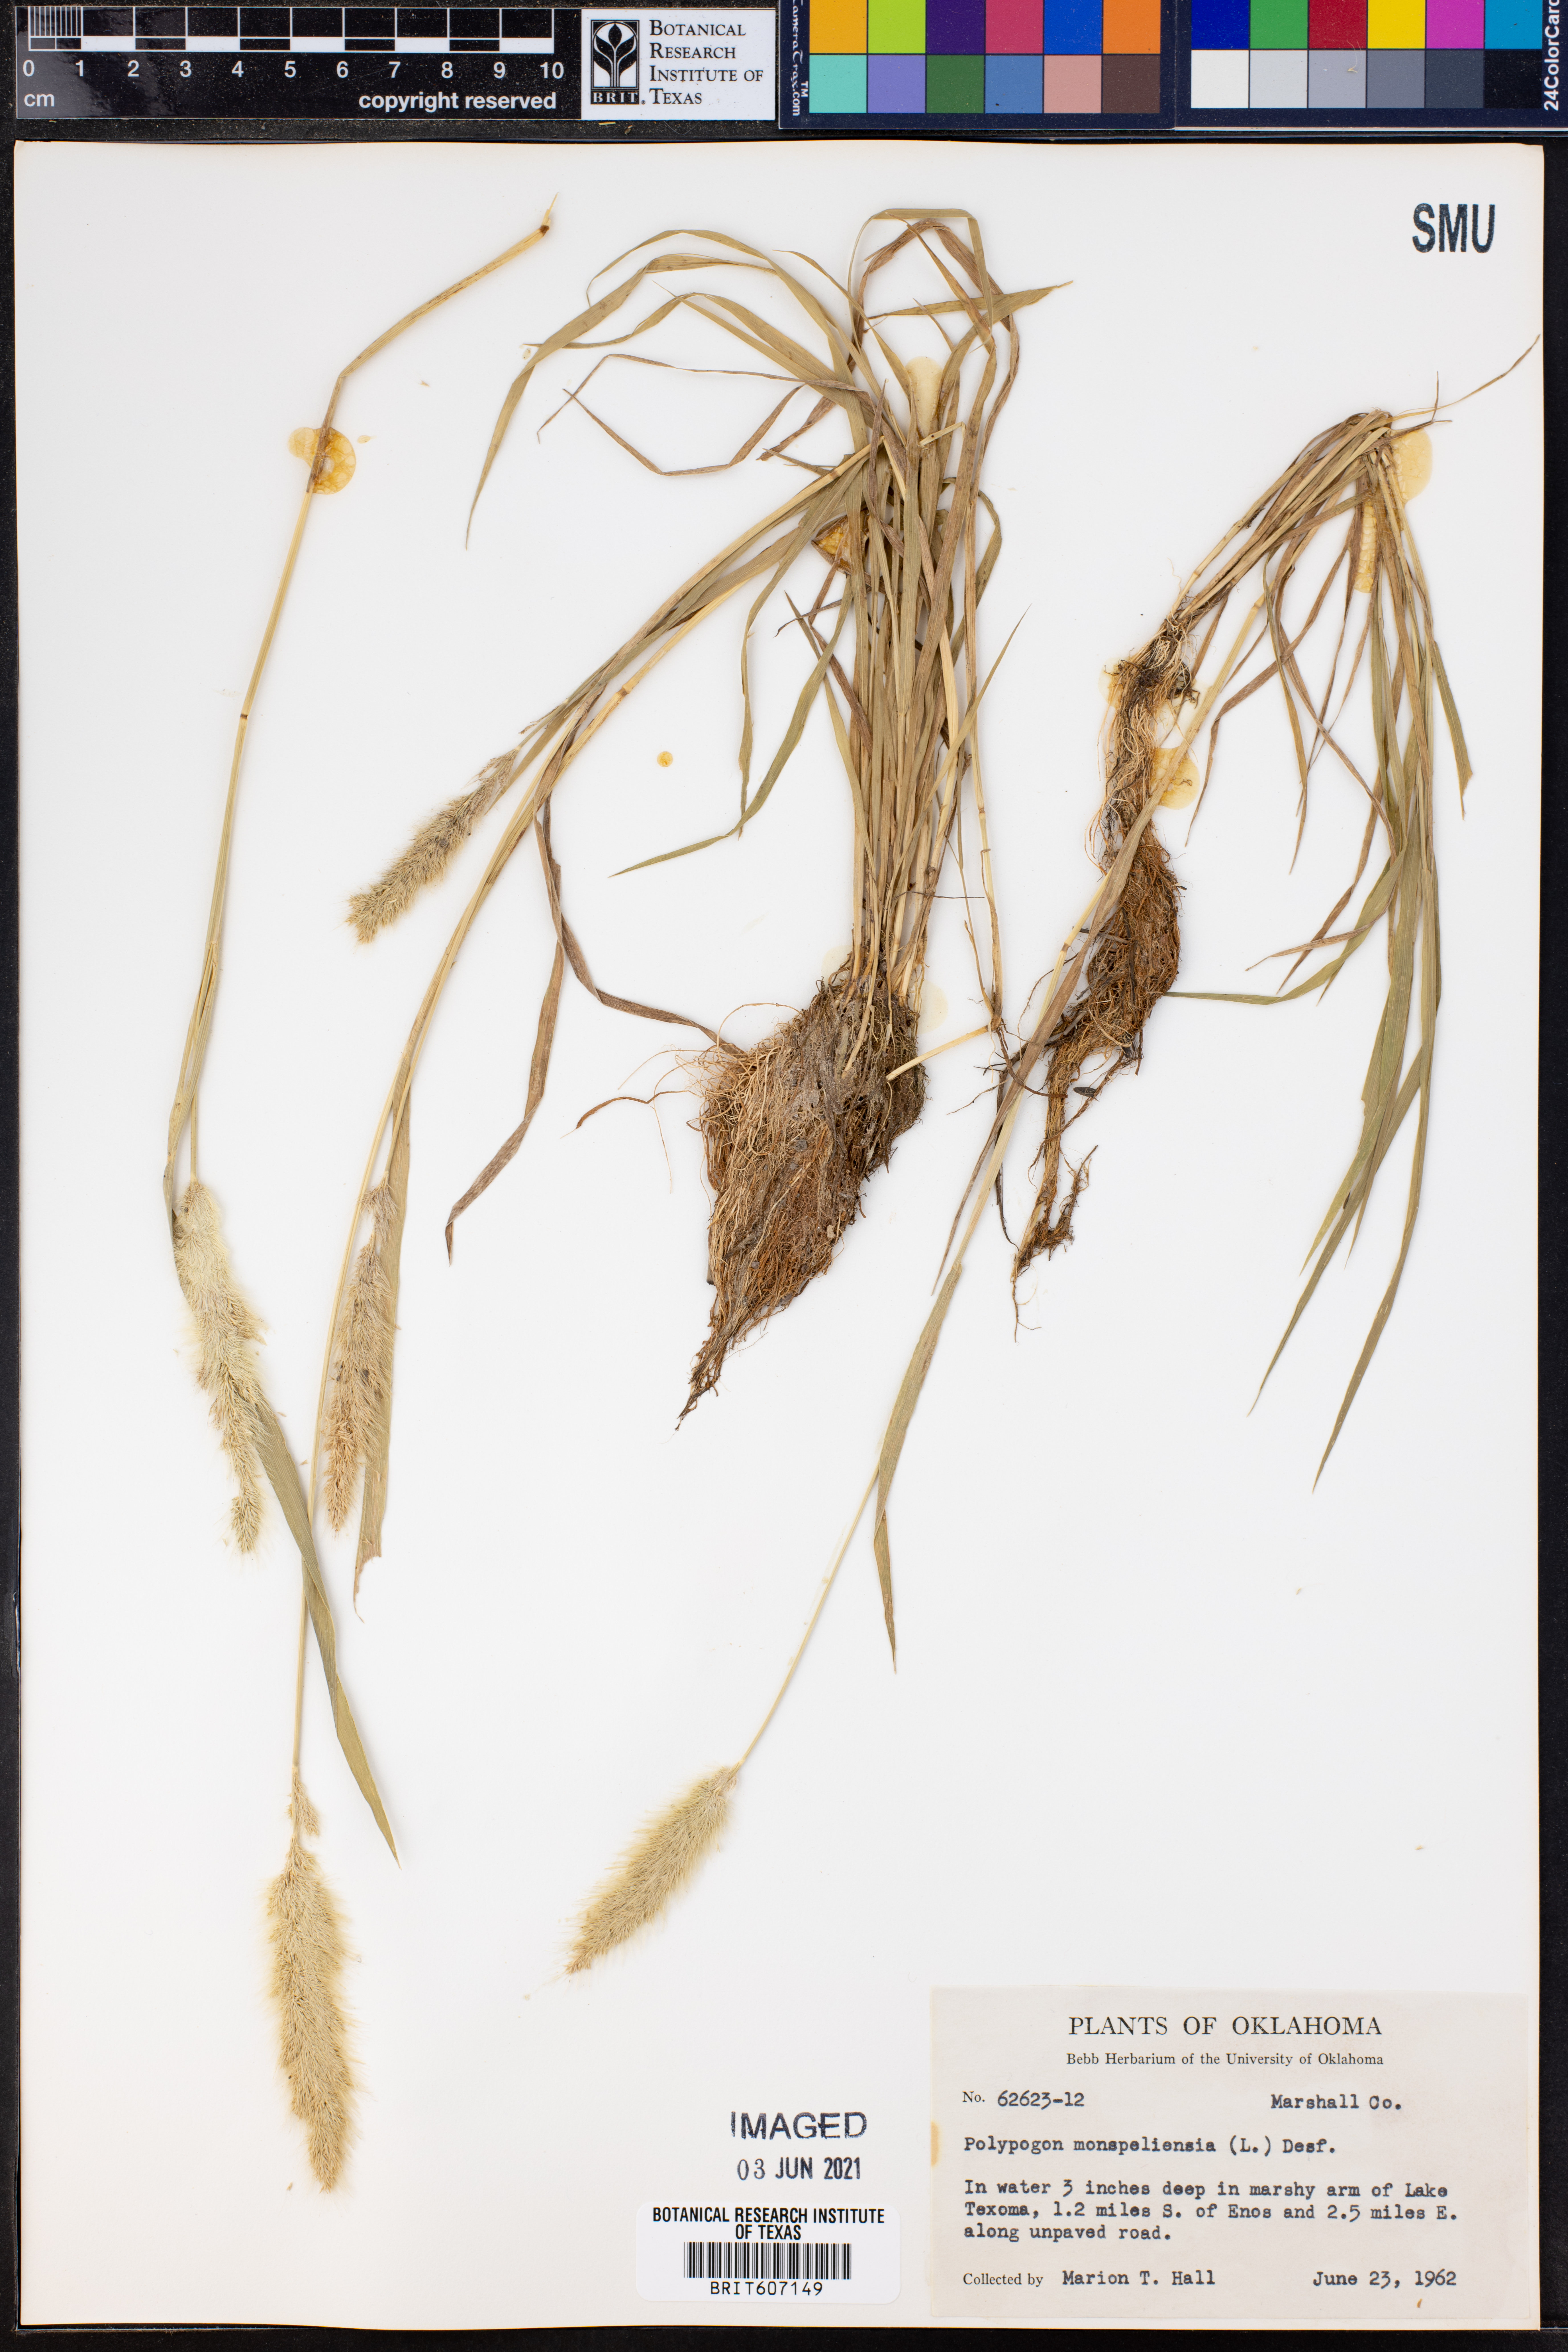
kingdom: Plantae
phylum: Tracheophyta
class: Liliopsida
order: Poales
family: Poaceae
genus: Polypogon
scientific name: Polypogon monspeliensis
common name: Annual rabbitsfoot grass
